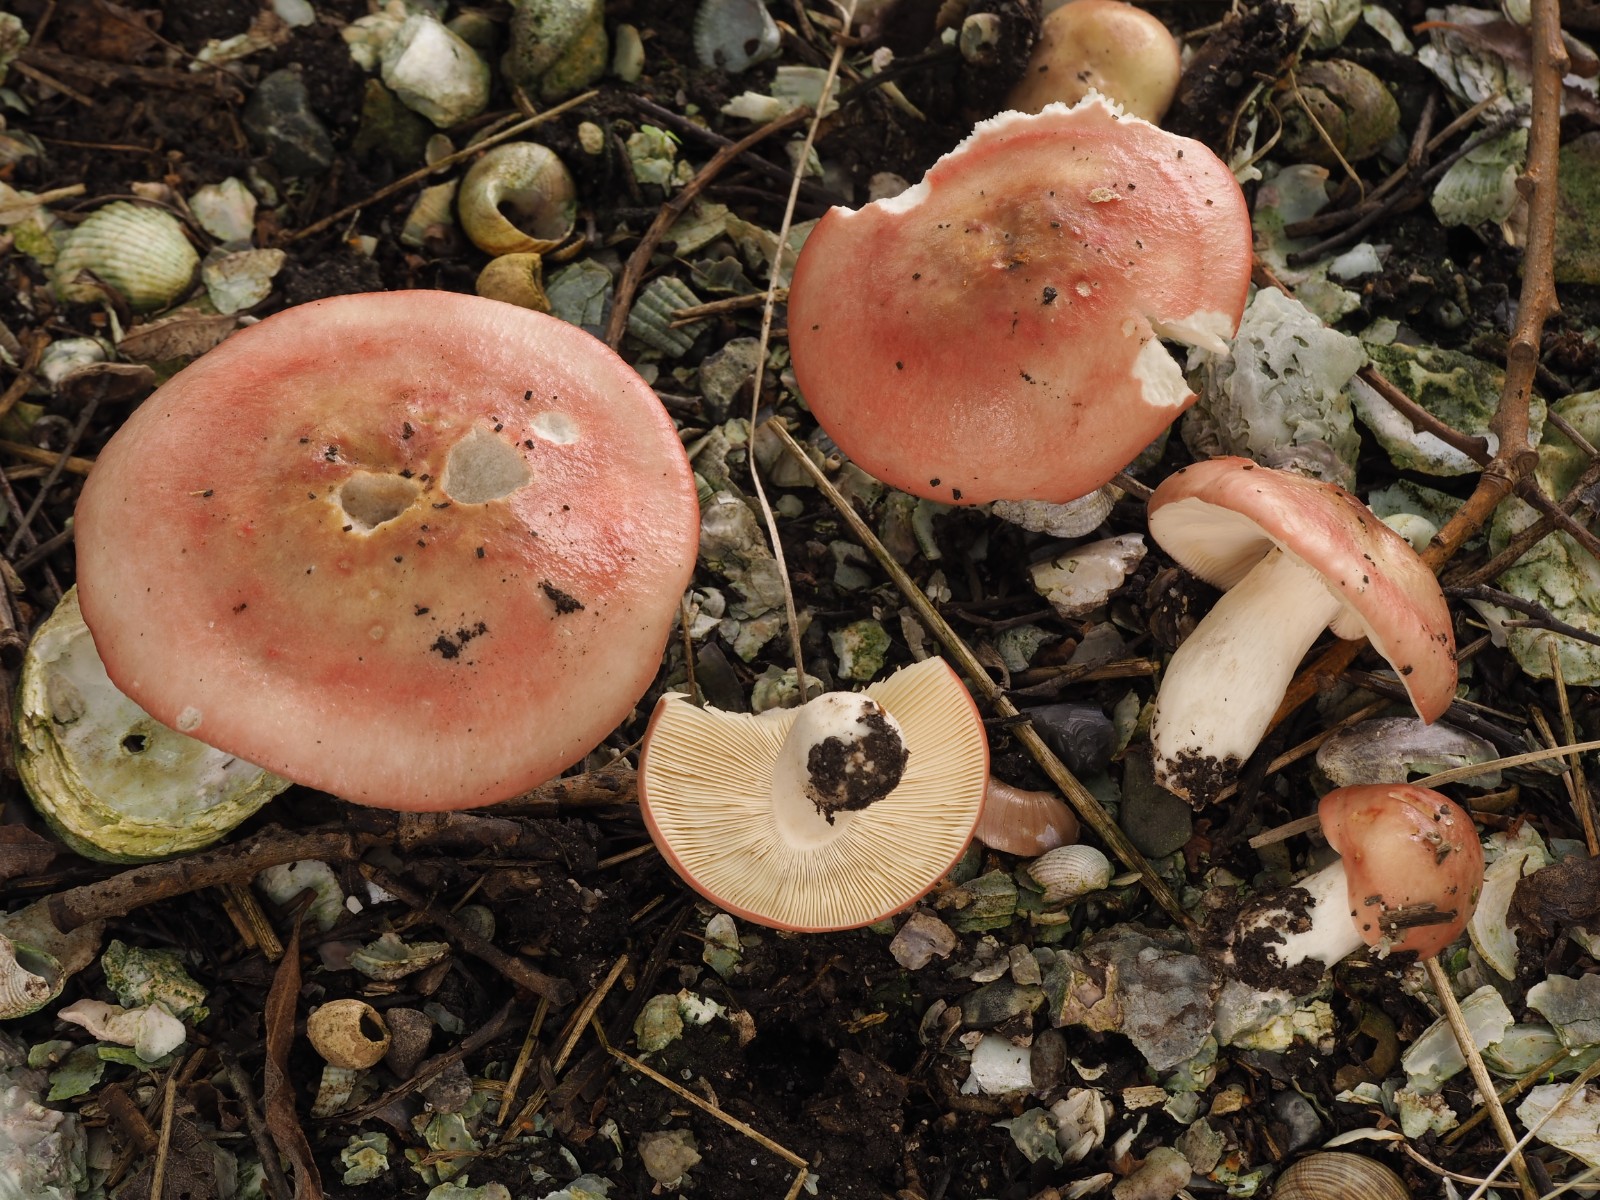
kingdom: Fungi
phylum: Basidiomycota
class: Agaricomycetes
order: Russulales
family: Russulaceae
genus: Russula
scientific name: Russula depallens
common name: falmende skørhat
